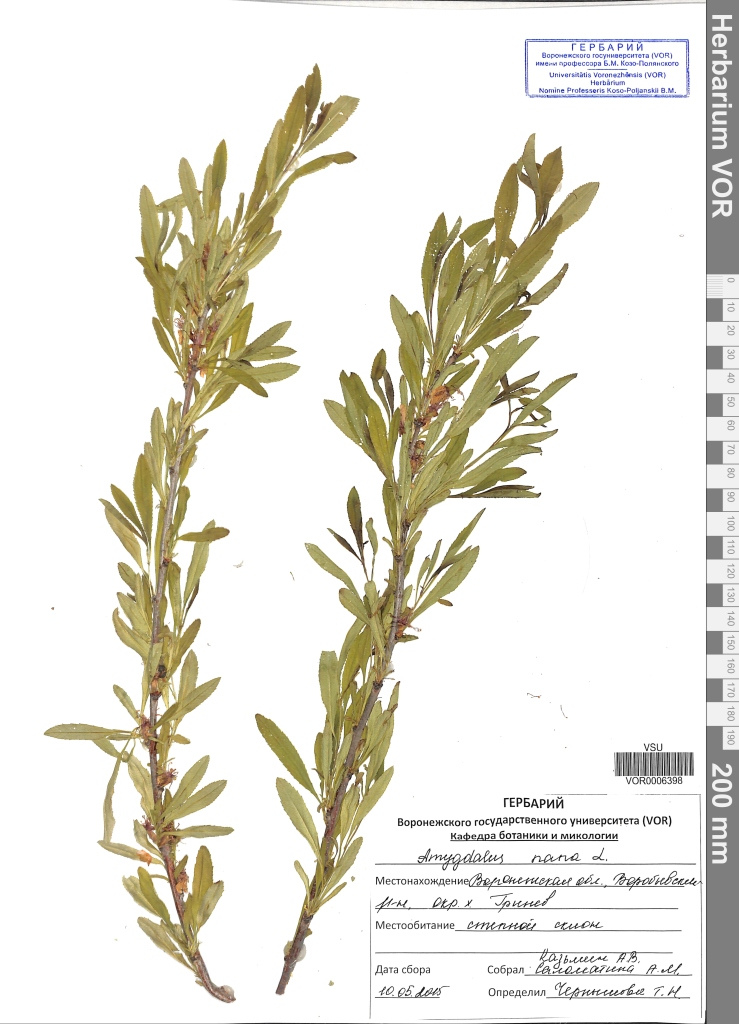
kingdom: Plantae
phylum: Tracheophyta
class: Magnoliopsida
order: Rosales
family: Rosaceae
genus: Prunus
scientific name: Prunus tenella
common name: Dwarf russian almond
